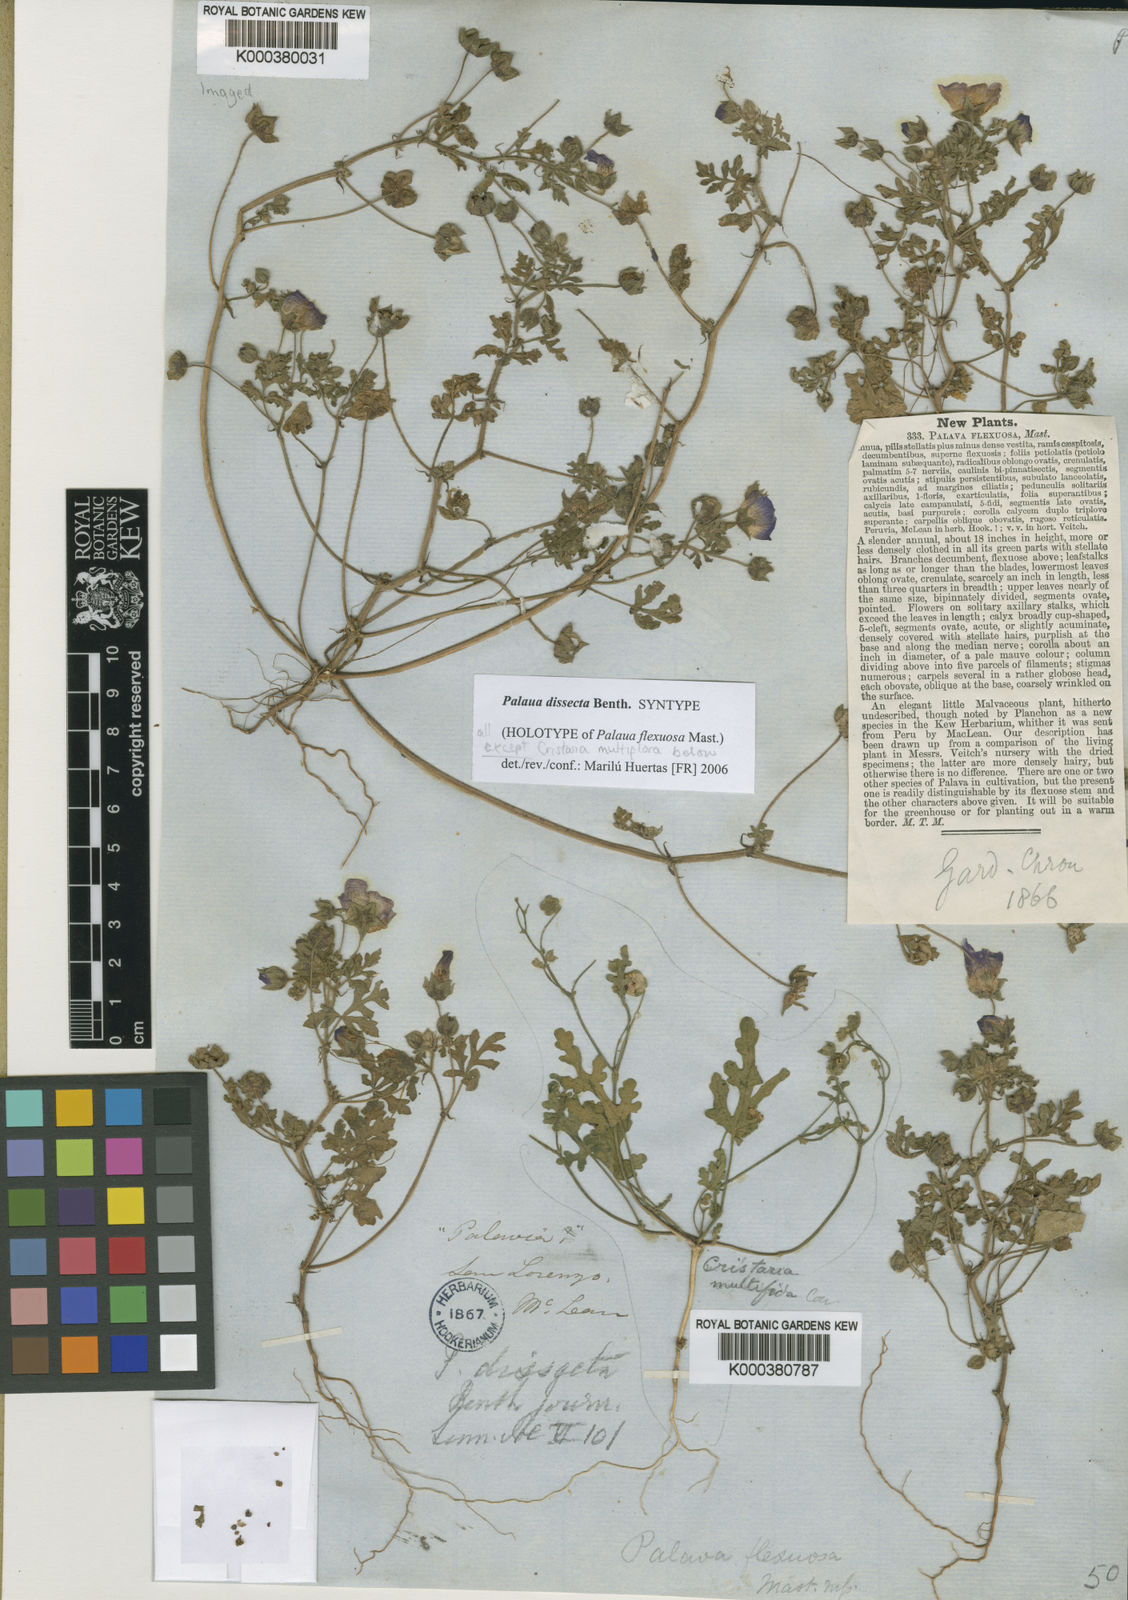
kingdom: Plantae
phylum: Tracheophyta
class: Magnoliopsida
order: Malvales
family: Malvaceae
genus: Palaua
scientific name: Palaua dissecta
